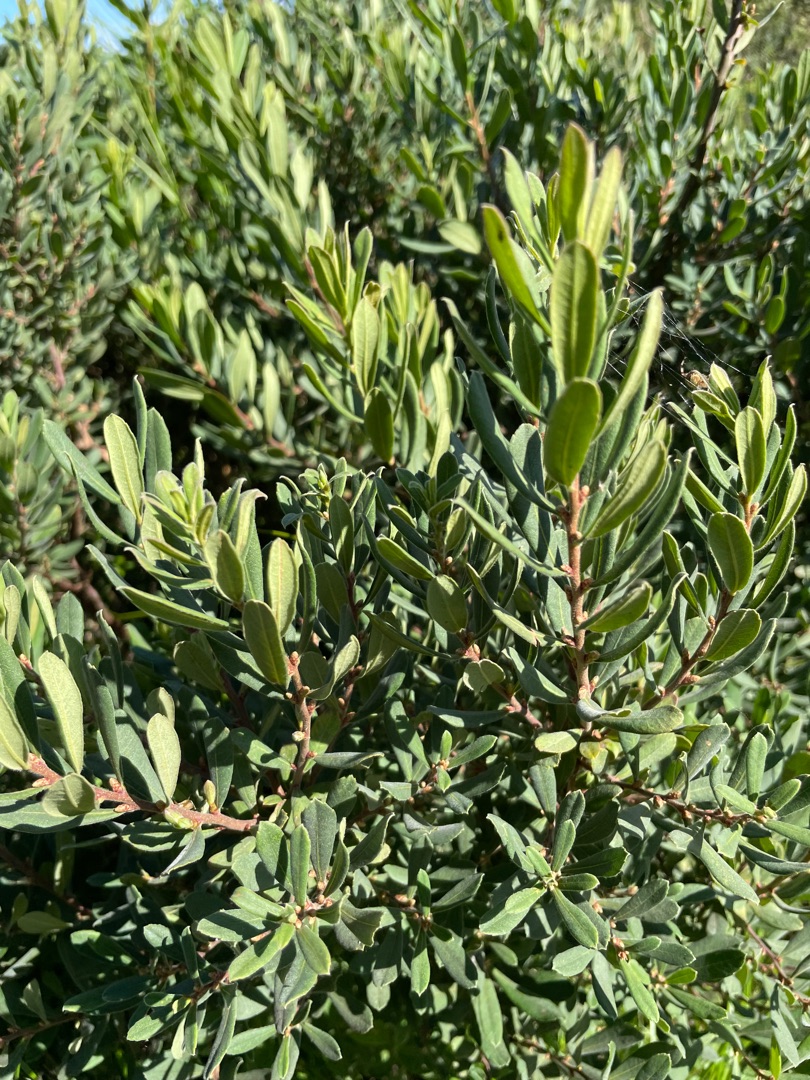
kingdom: Plantae
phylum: Tracheophyta
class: Magnoliopsida
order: Fagales
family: Myricaceae
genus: Myrica
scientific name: Myrica gale
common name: Pors
